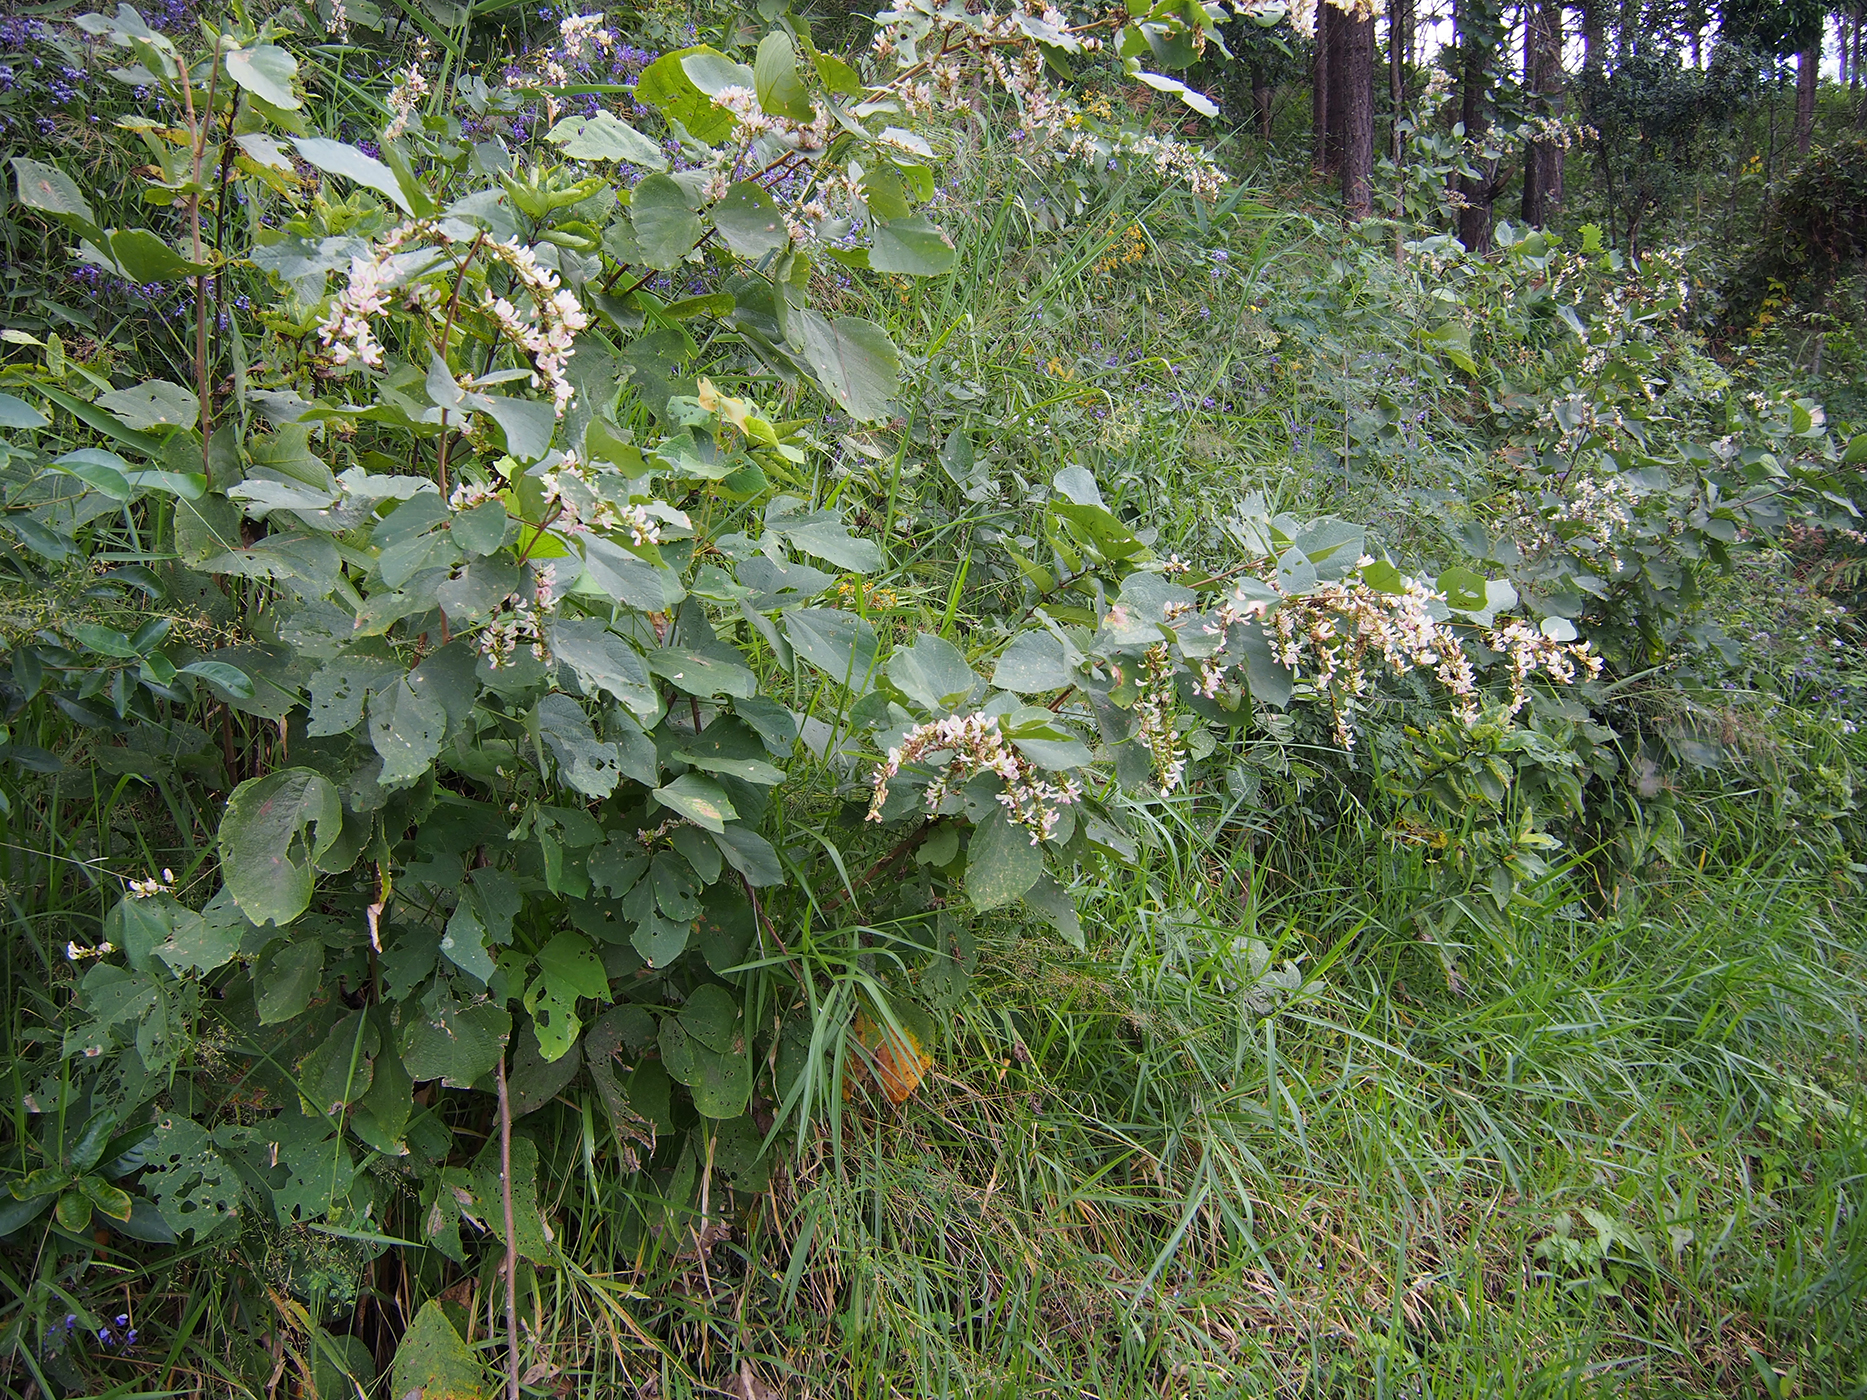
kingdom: Plantae
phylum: Tracheophyta
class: Magnoliopsida
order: Fabales
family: Fabaceae
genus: Haymondia
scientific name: Haymondia wallichii
